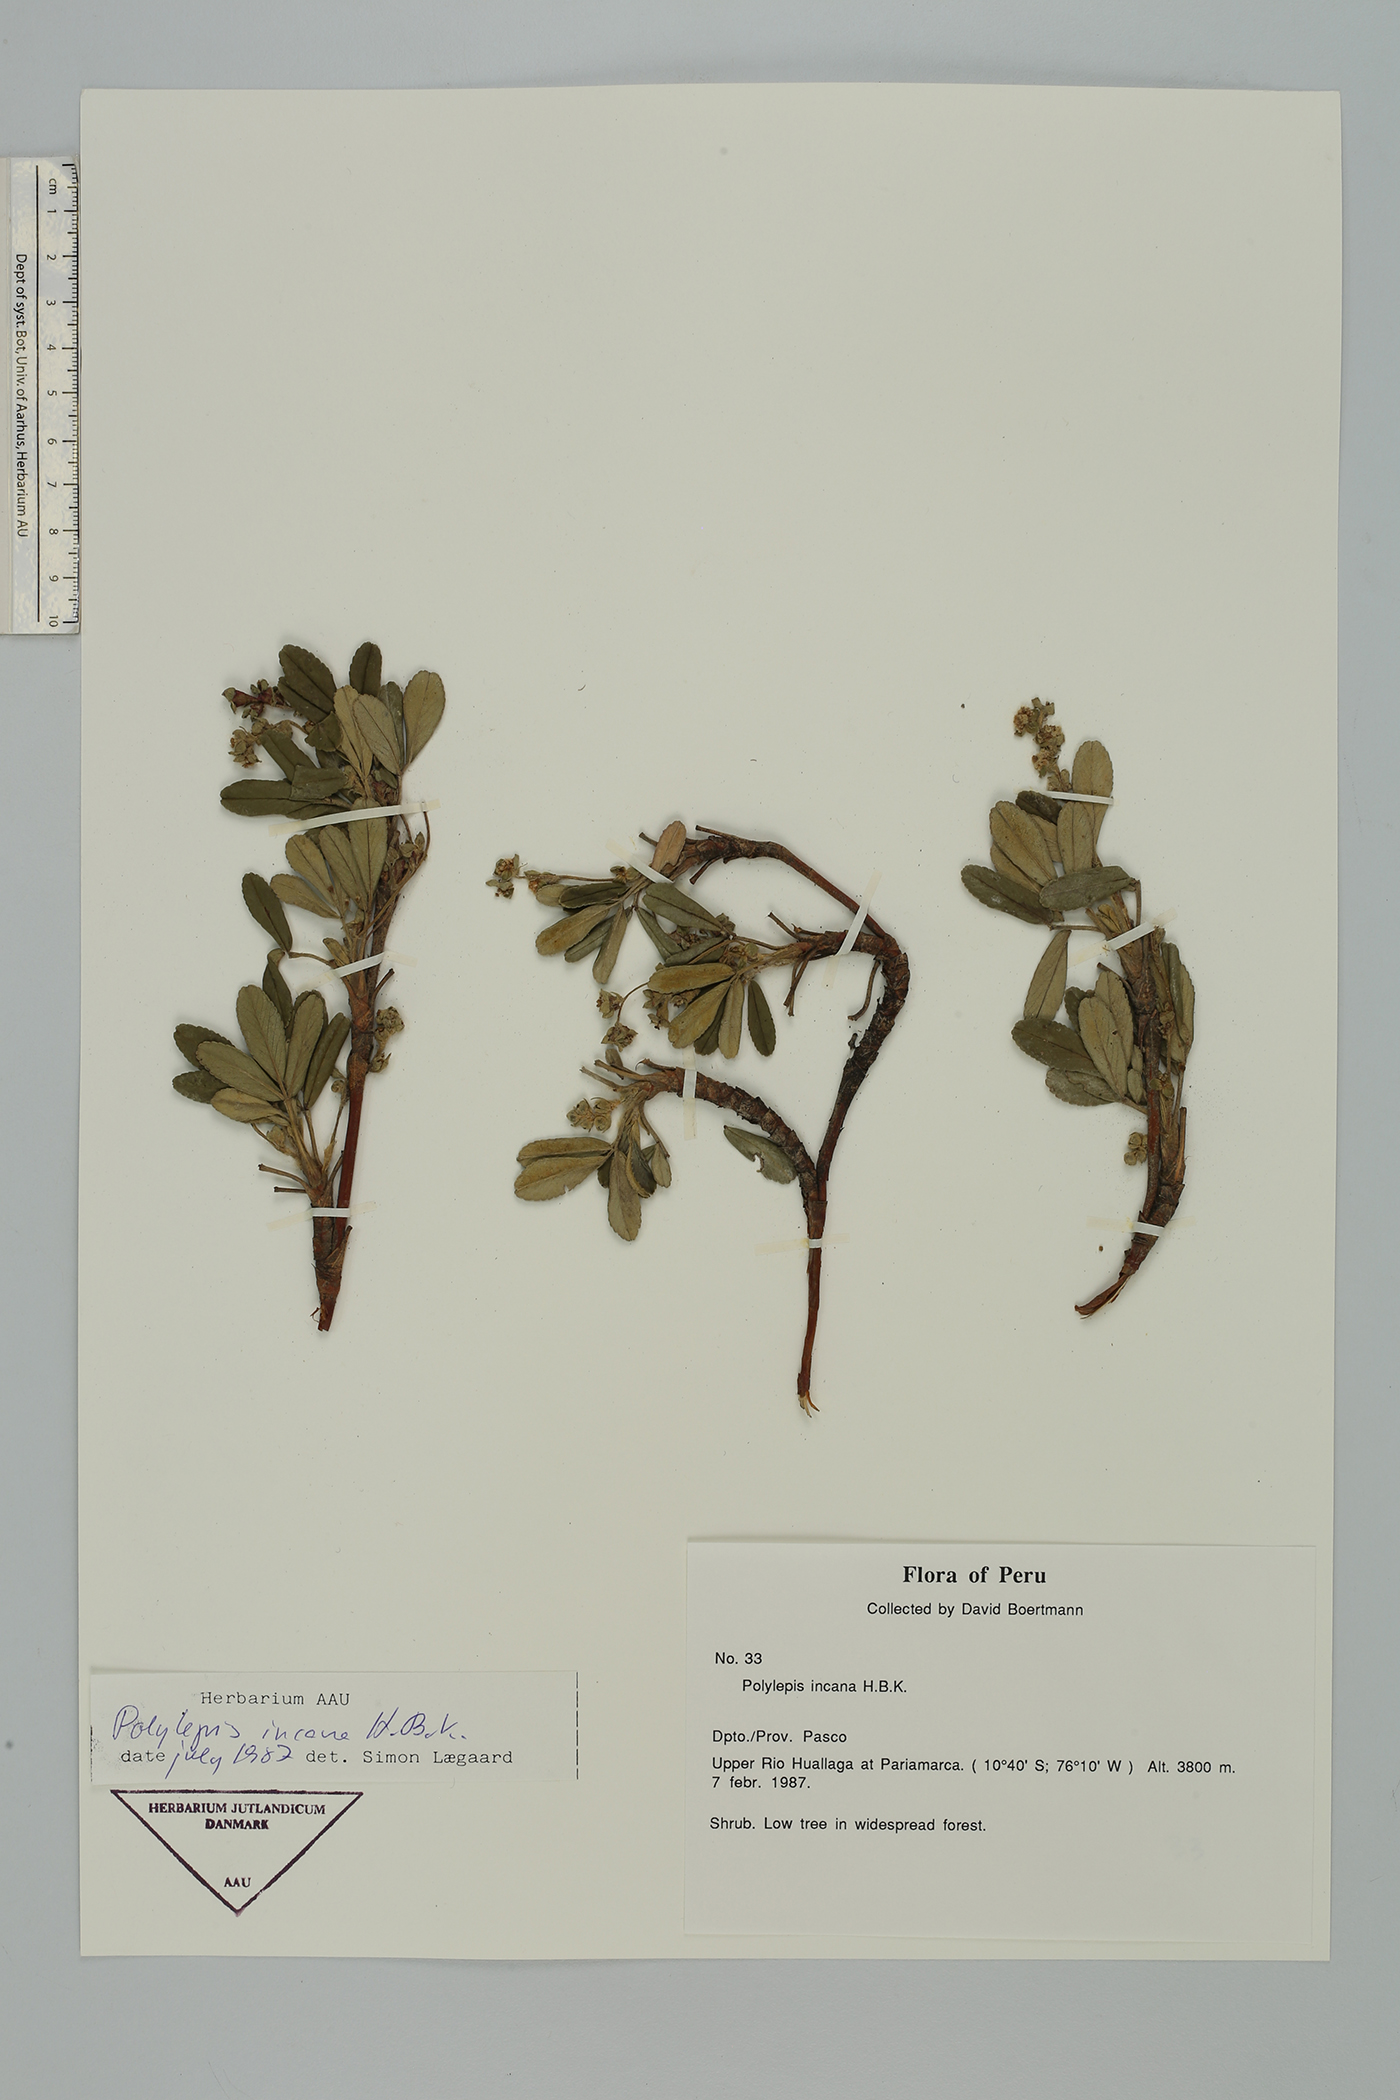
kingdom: Plantae
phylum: Tracheophyta
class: Magnoliopsida
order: Rosales
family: Rosaceae
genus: Polylepis
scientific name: Polylepis incana
